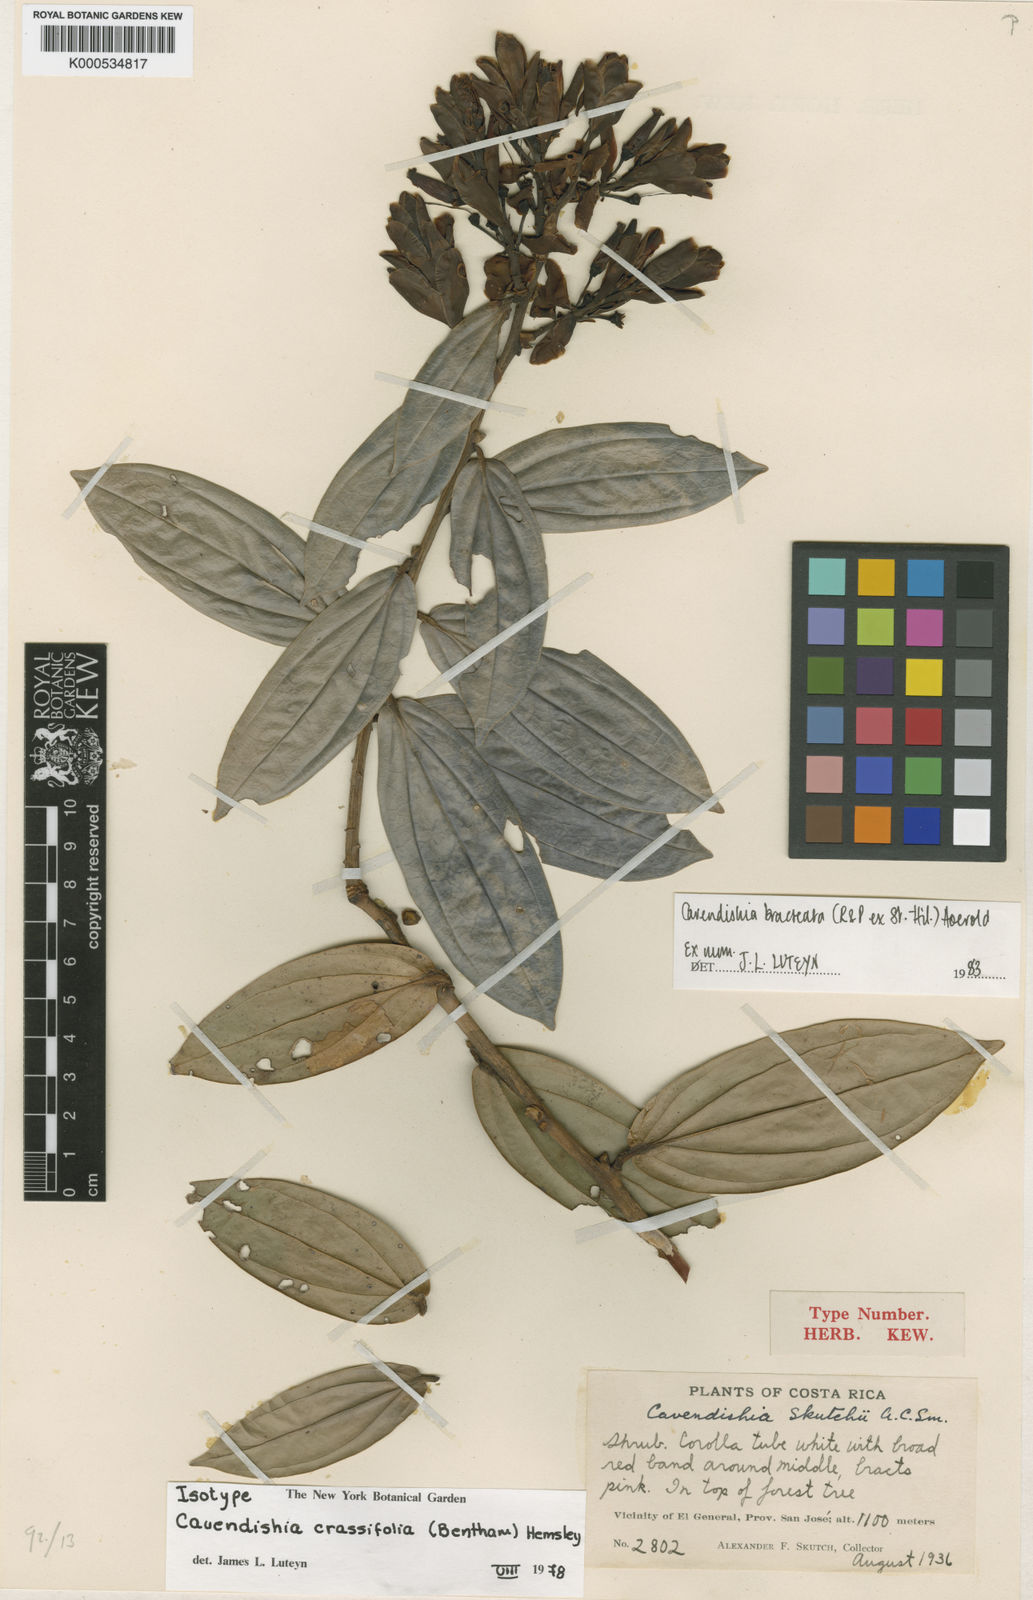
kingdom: Plantae
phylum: Tracheophyta
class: Magnoliopsida
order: Ericales
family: Ericaceae
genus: Cavendishia
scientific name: Cavendishia bracteata
